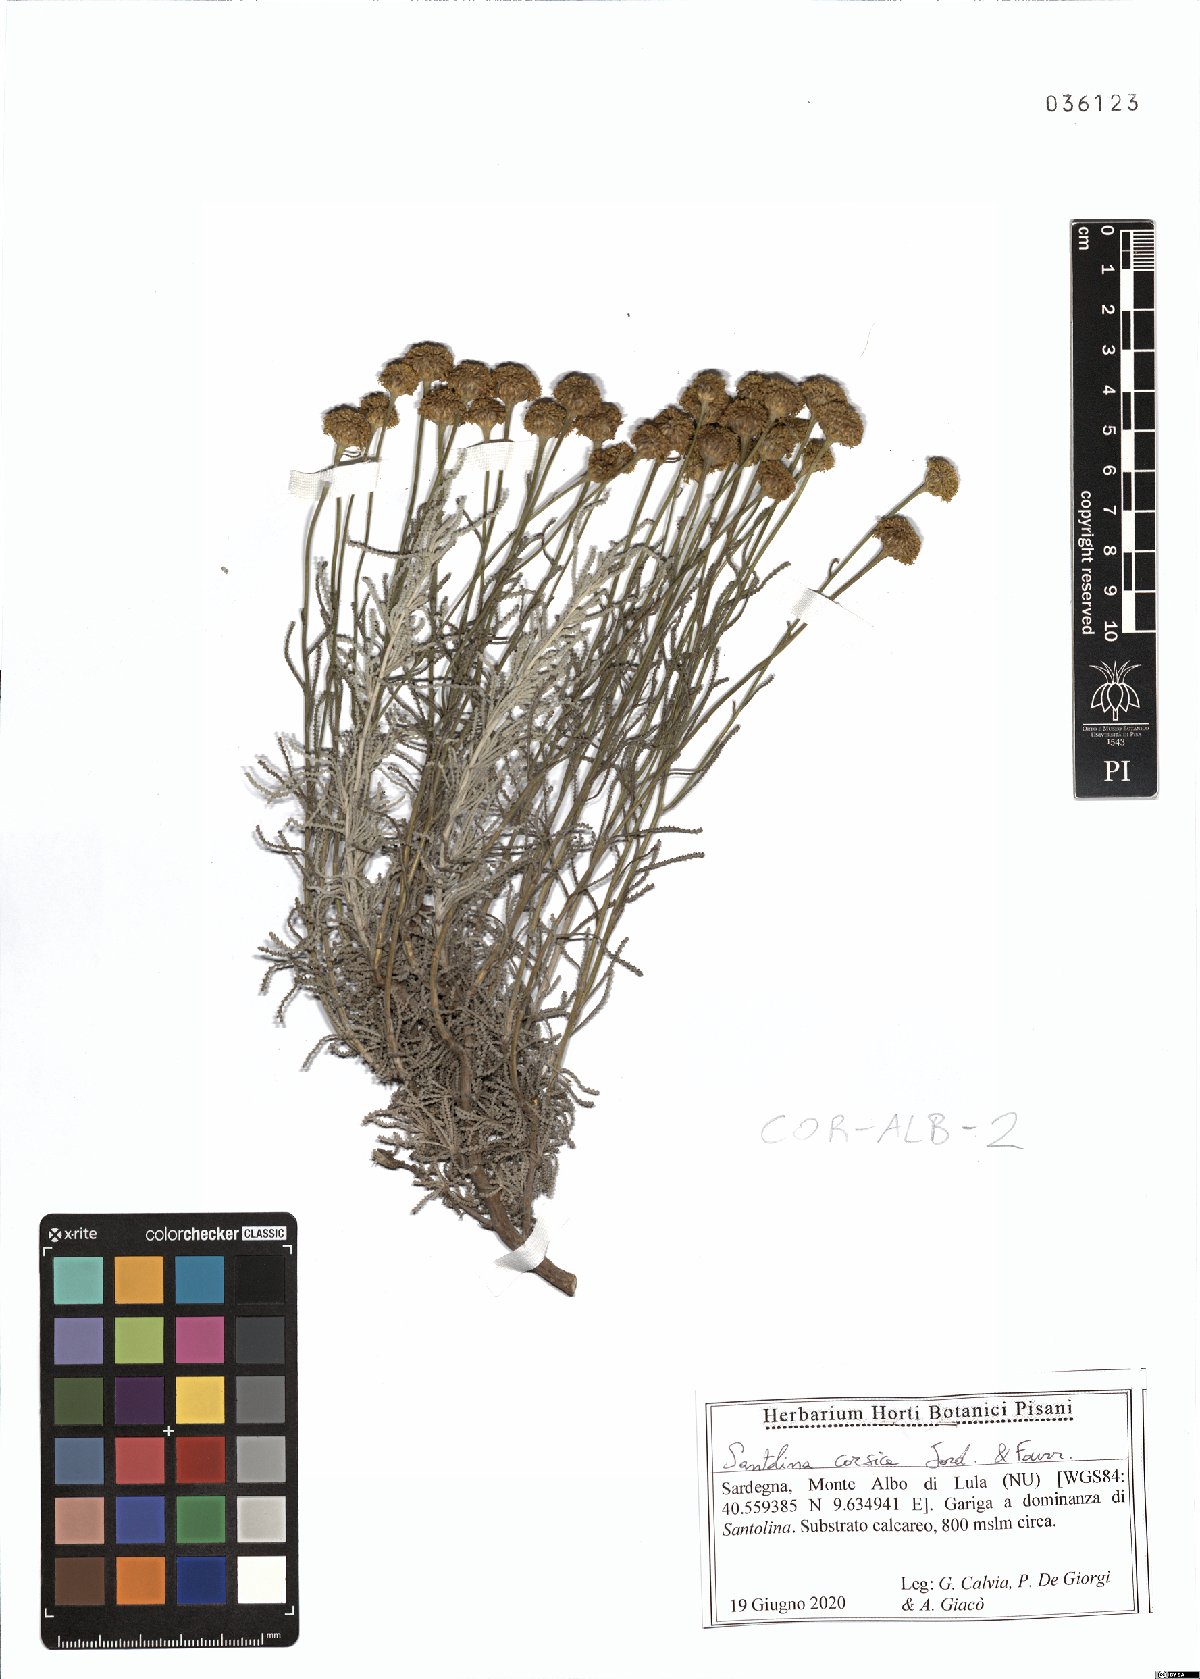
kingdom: Plantae
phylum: Tracheophyta
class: Magnoliopsida
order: Asterales
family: Asteraceae
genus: Santolina
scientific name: Santolina corsica
